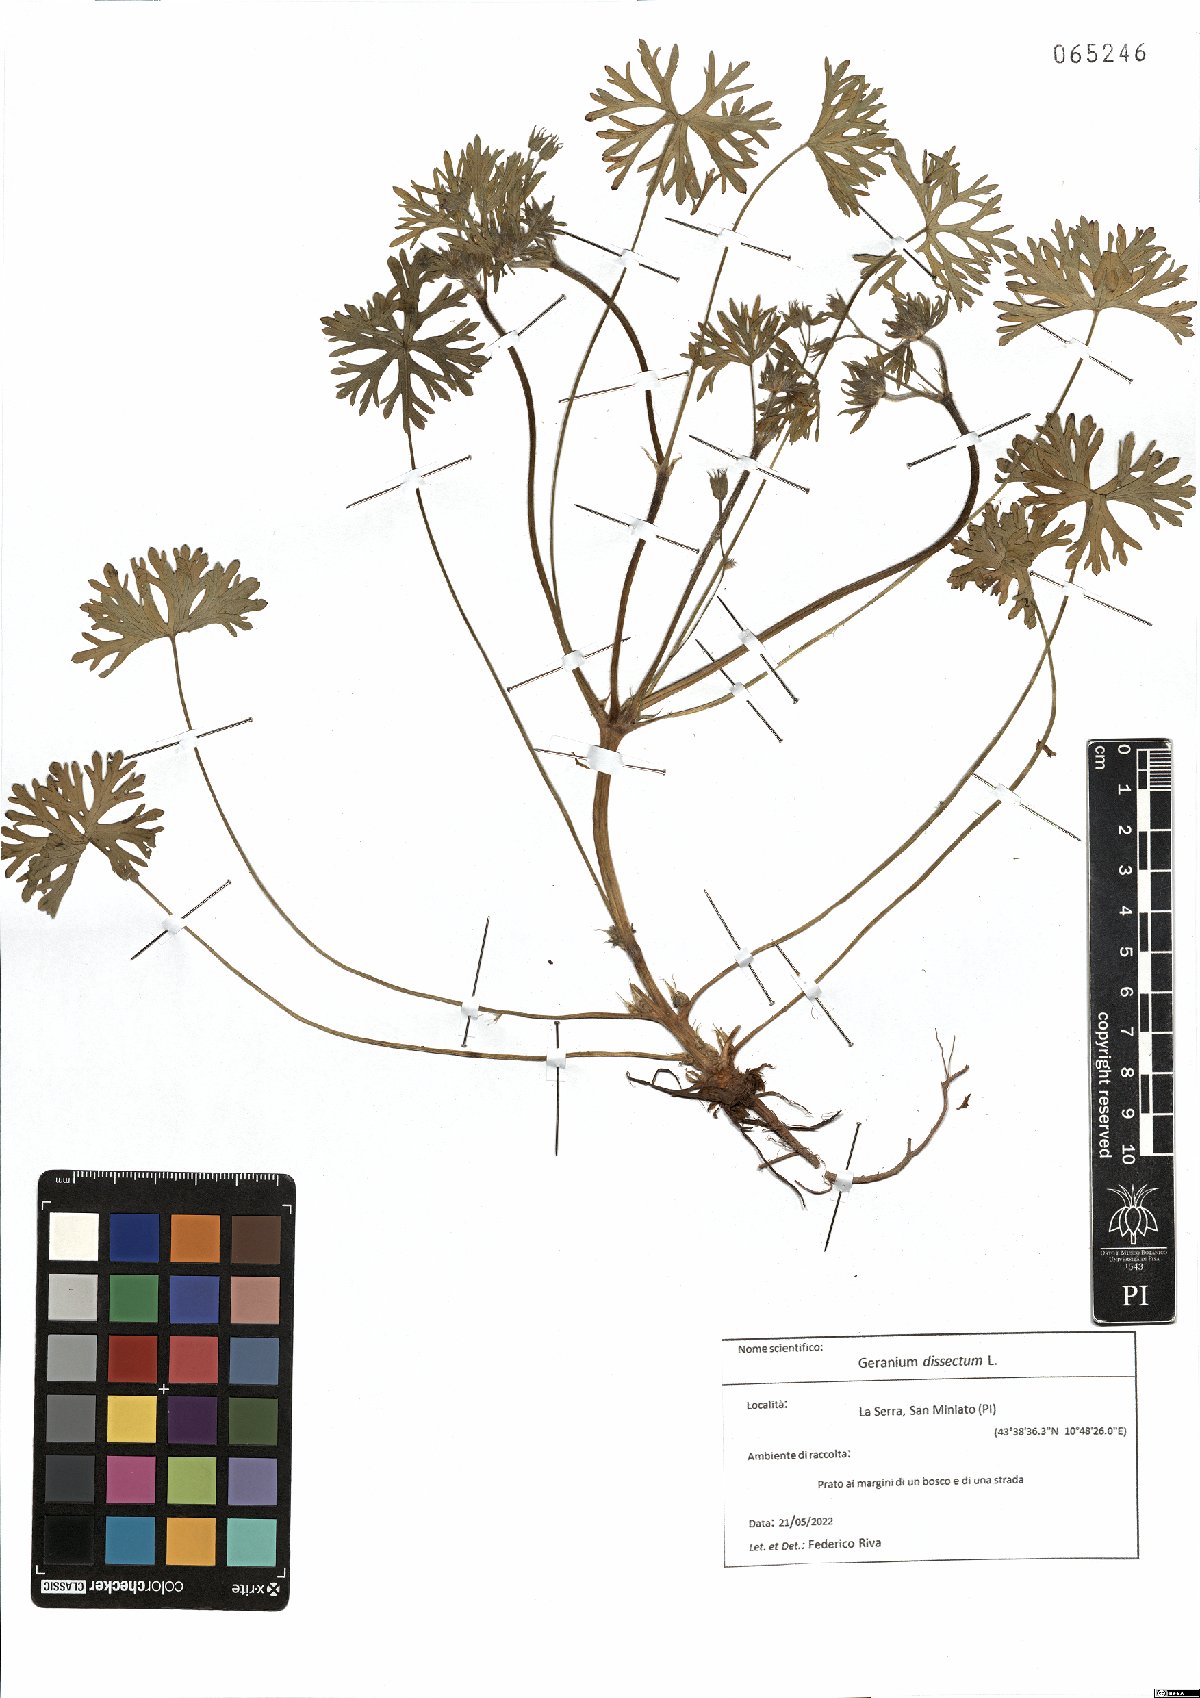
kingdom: Plantae
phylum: Tracheophyta
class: Magnoliopsida
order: Geraniales
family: Geraniaceae
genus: Geranium
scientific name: Geranium dissectum
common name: Cut-leaved crane's-bill
